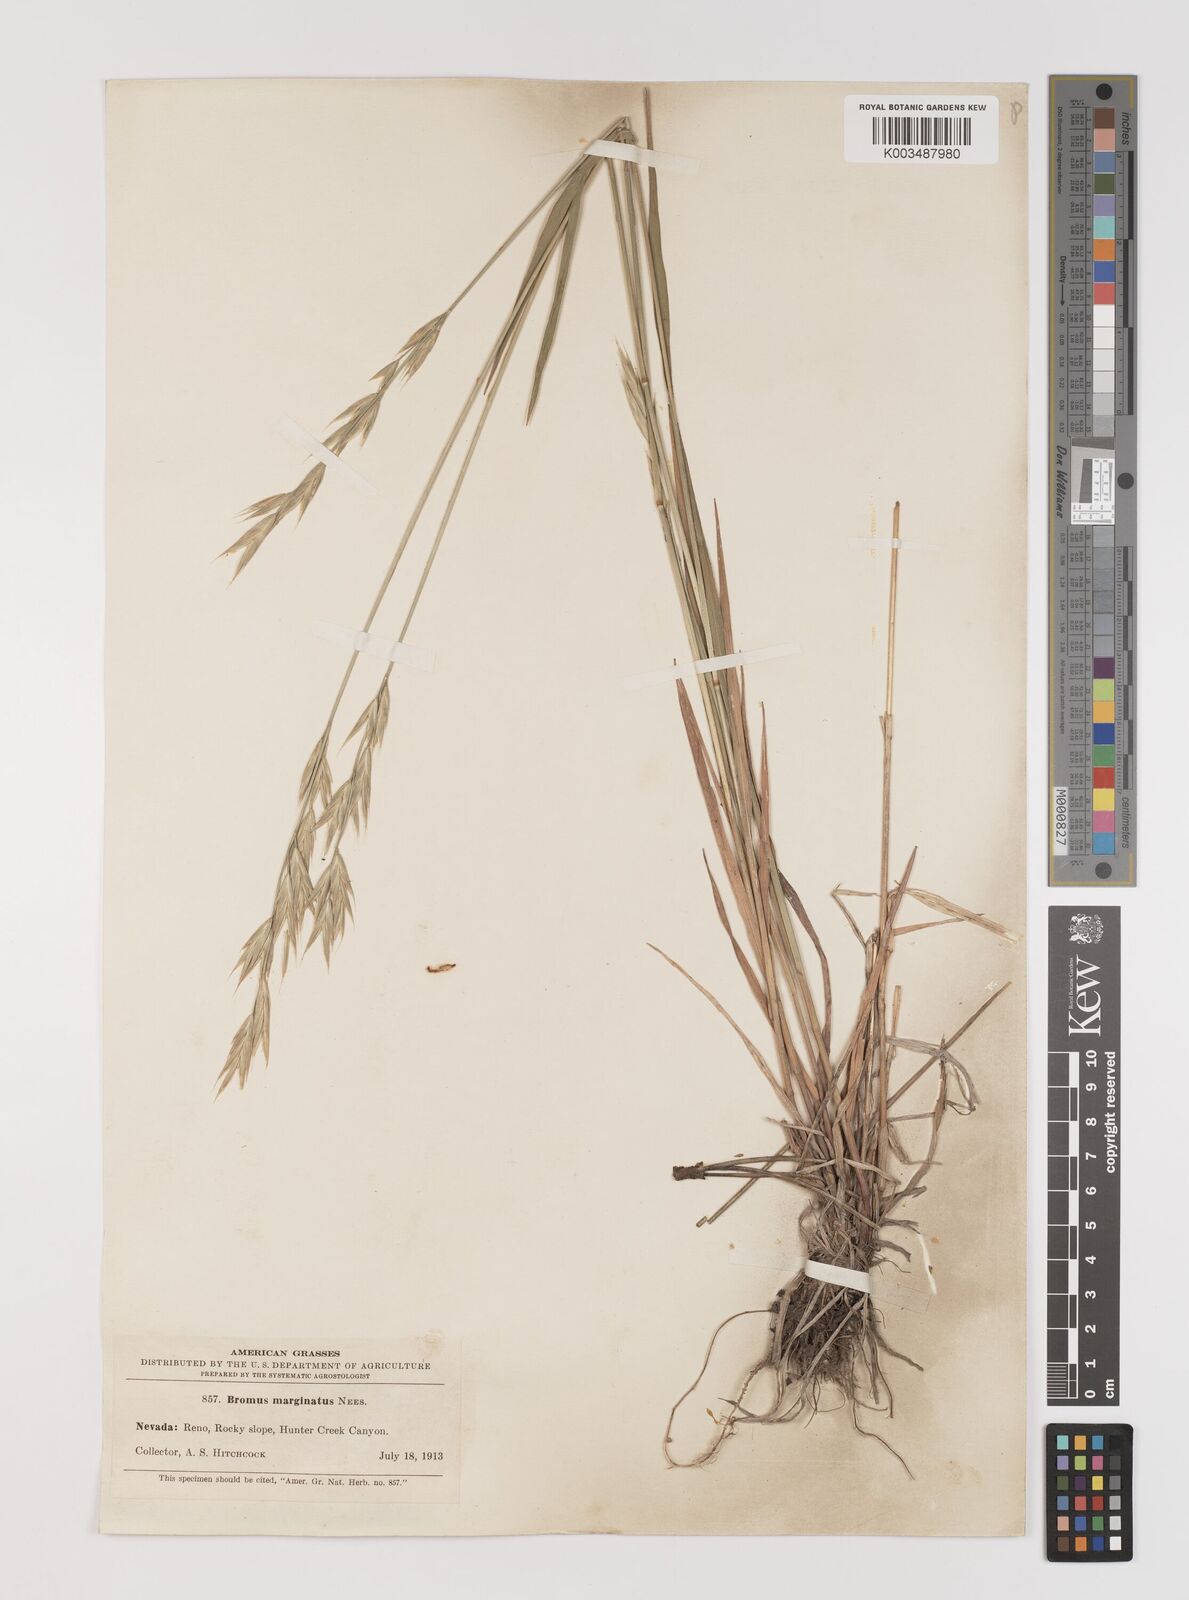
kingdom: Plantae
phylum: Tracheophyta
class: Liliopsida
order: Poales
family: Poaceae
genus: Bromus
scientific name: Bromus marginatus
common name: Western brome
